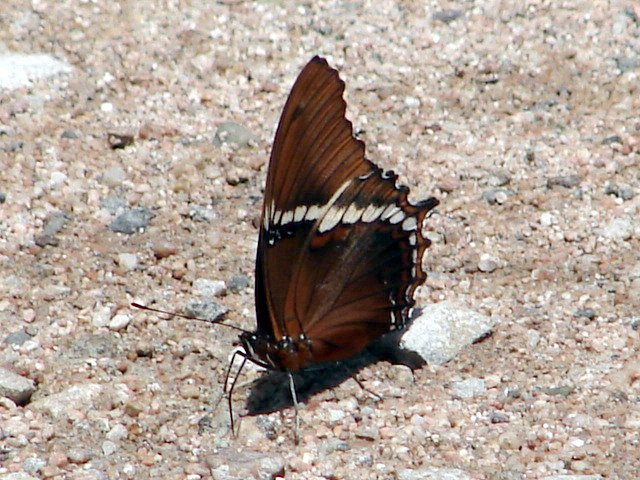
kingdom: Animalia
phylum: Arthropoda
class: Insecta
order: Lepidoptera
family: Nymphalidae
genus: Siproeta
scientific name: Siproeta epaphus
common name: Rusty-tipped Page
